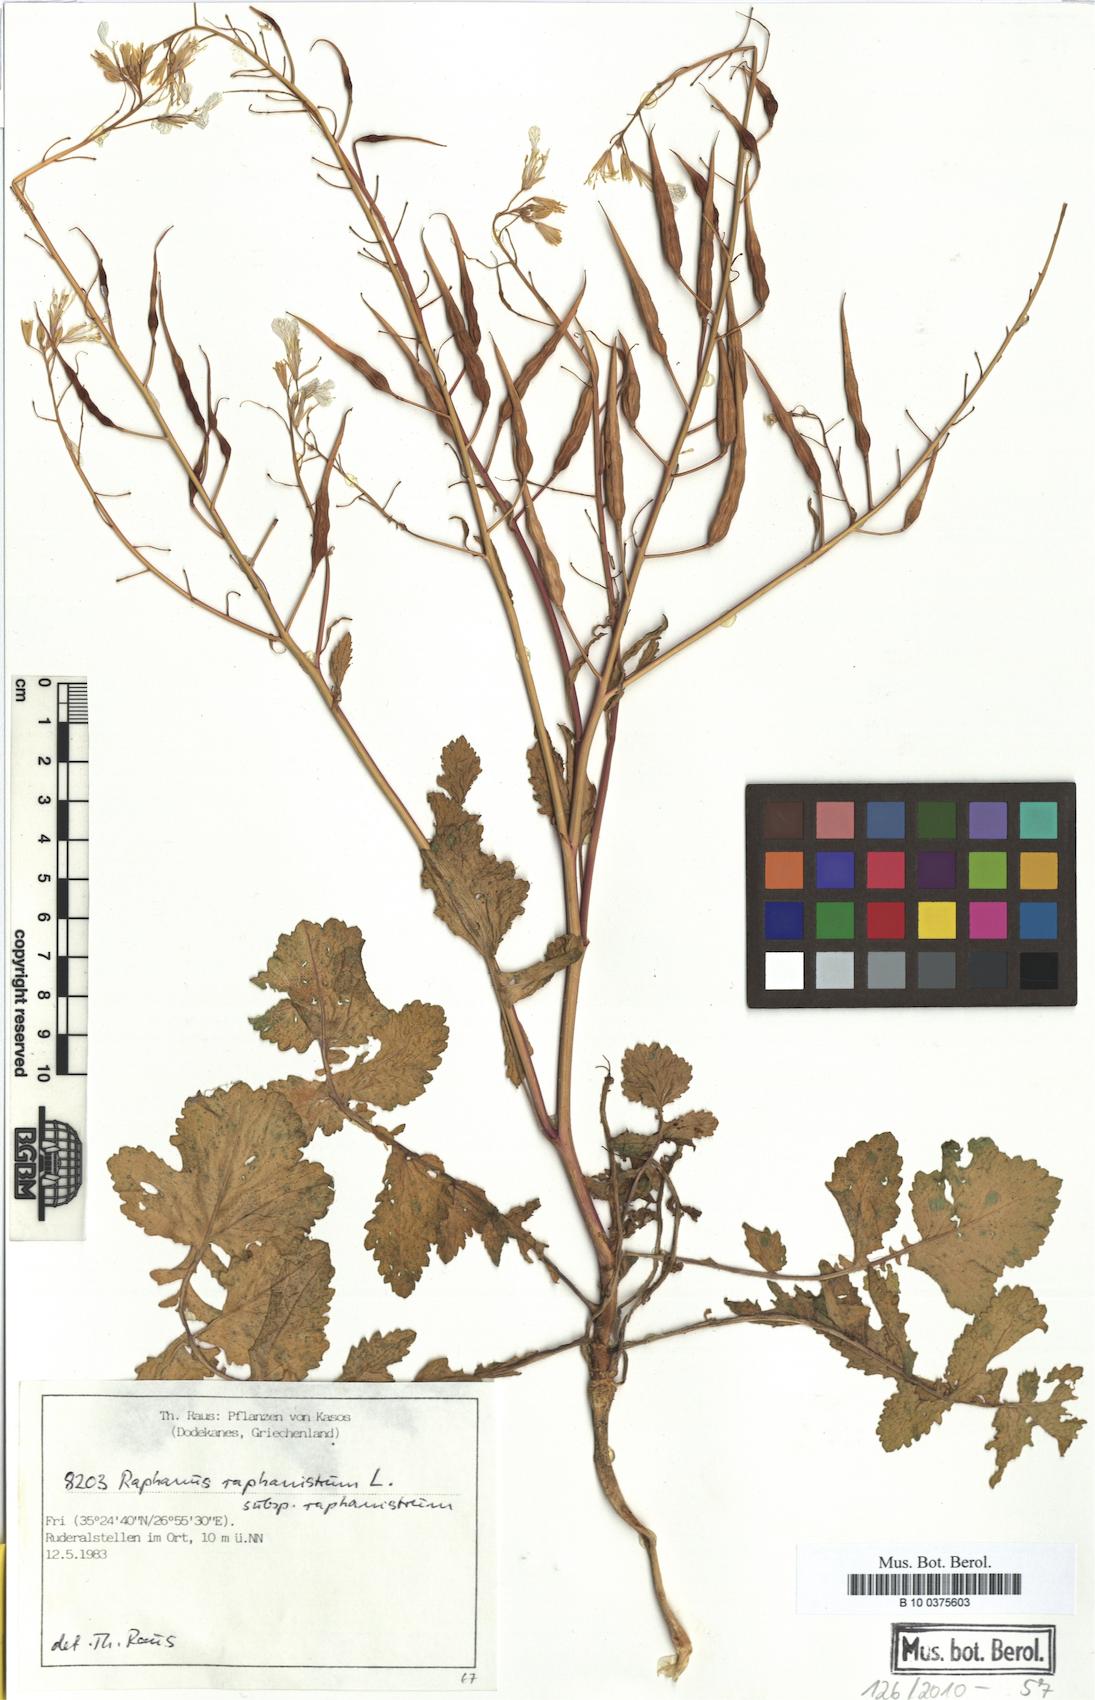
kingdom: Plantae
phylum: Tracheophyta
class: Magnoliopsida
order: Brassicales
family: Brassicaceae
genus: Raphanus
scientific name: Raphanus raphanistrum
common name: Wild radish
